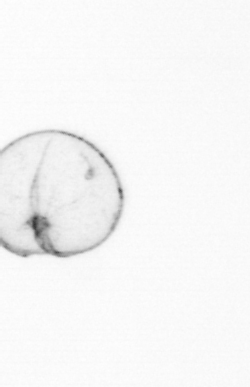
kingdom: Chromista
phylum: Myzozoa
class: Dinophyceae
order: Noctilucales
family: Noctilucaceae
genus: Noctiluca
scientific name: Noctiluca scintillans
